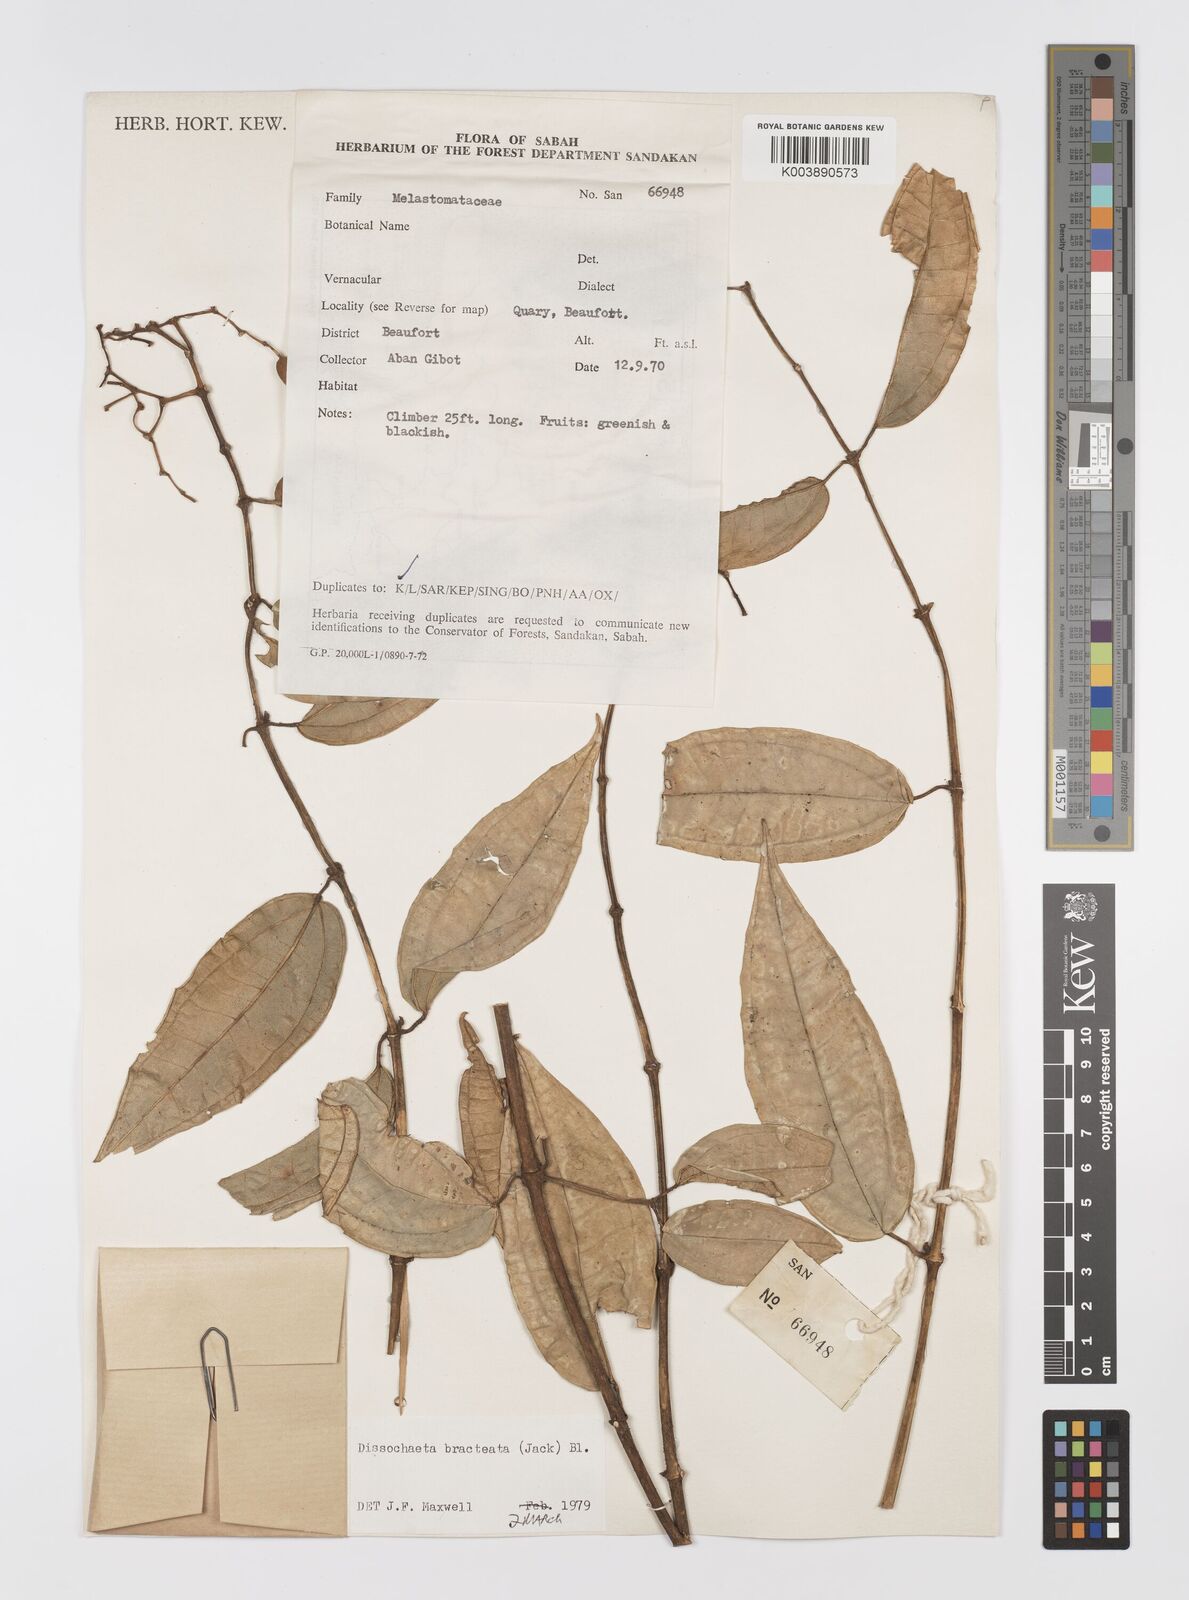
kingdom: Plantae
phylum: Tracheophyta
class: Magnoliopsida
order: Myrtales
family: Melastomataceae
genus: Dissochaeta
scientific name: Dissochaeta bracteata
